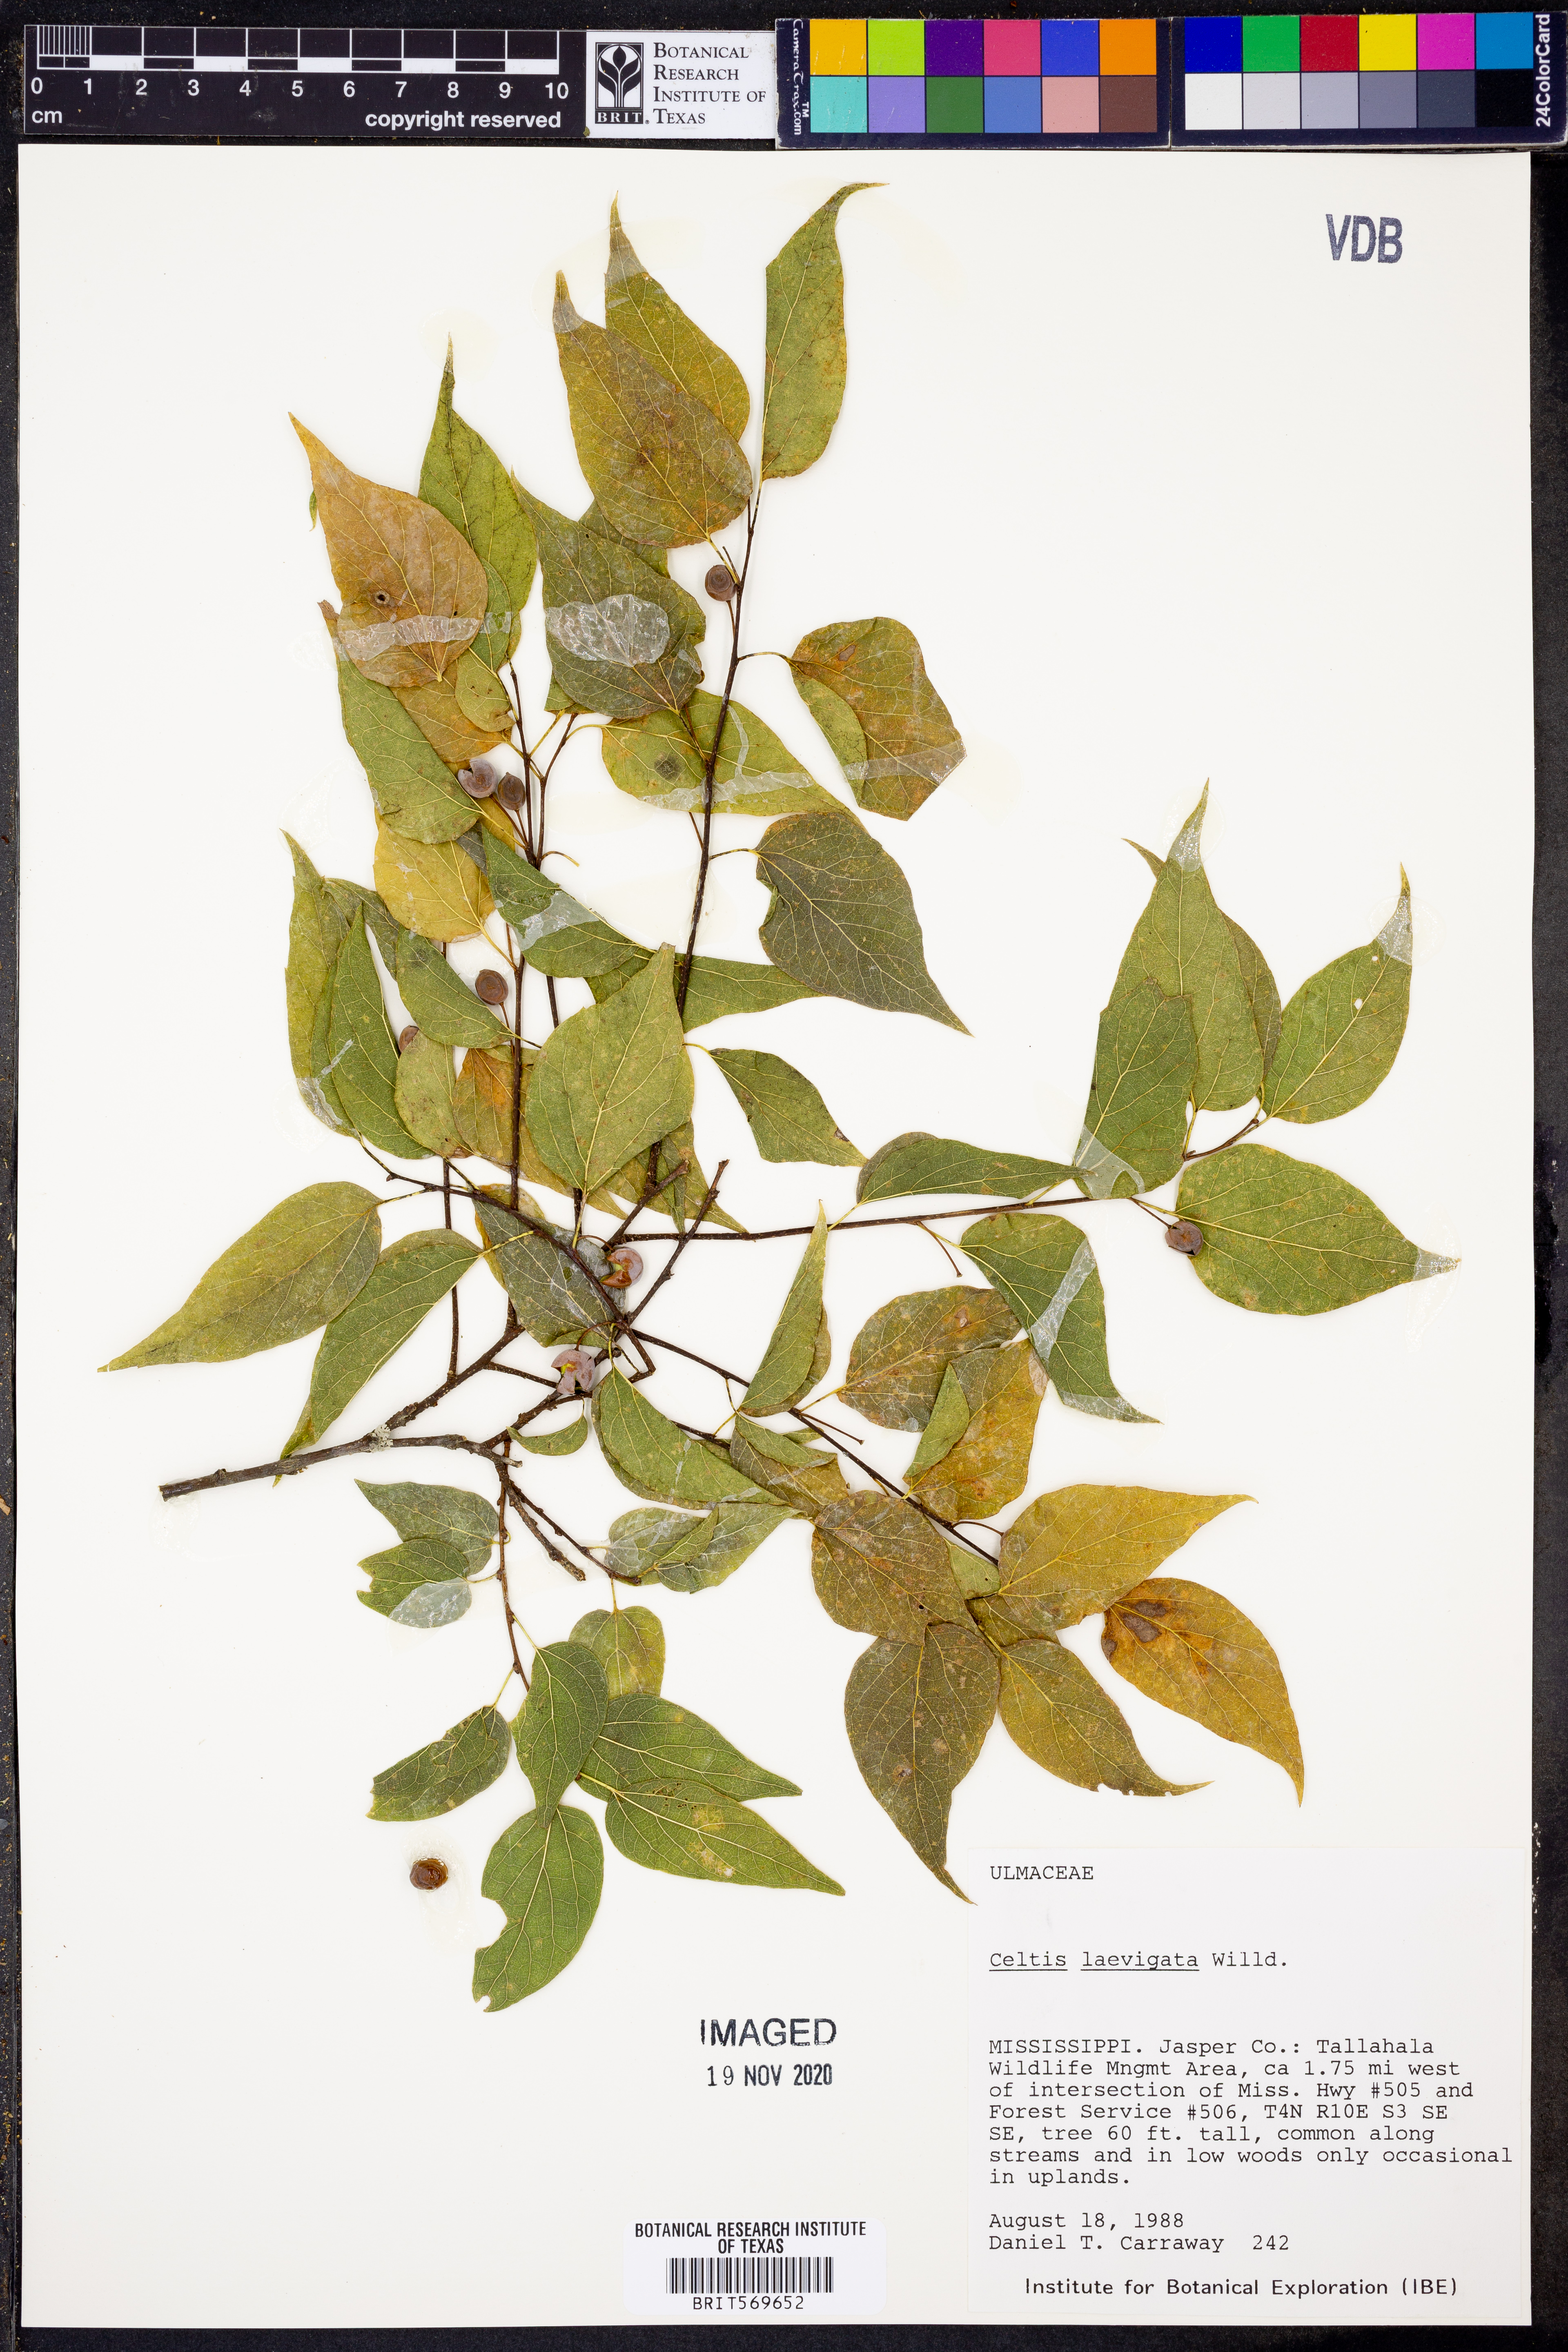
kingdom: Plantae
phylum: Tracheophyta
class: Magnoliopsida
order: Rosales
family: Cannabaceae
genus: Celtis
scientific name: Celtis laevigata
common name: Sugarberry
